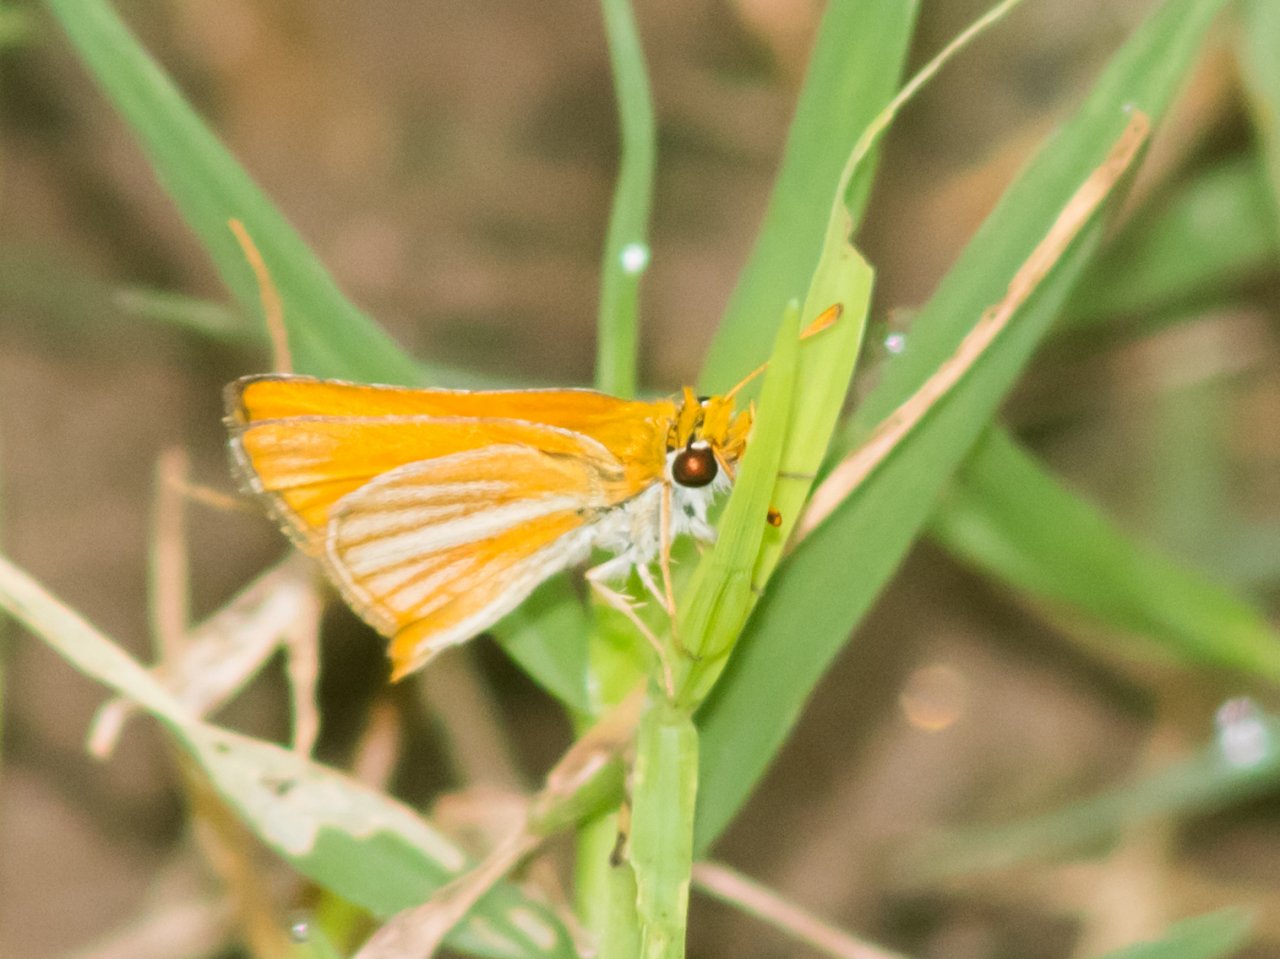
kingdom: Animalia
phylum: Arthropoda
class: Insecta
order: Lepidoptera
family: Hesperiidae
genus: Copaeodes
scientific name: Copaeodes minima
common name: Southern Skipperling
